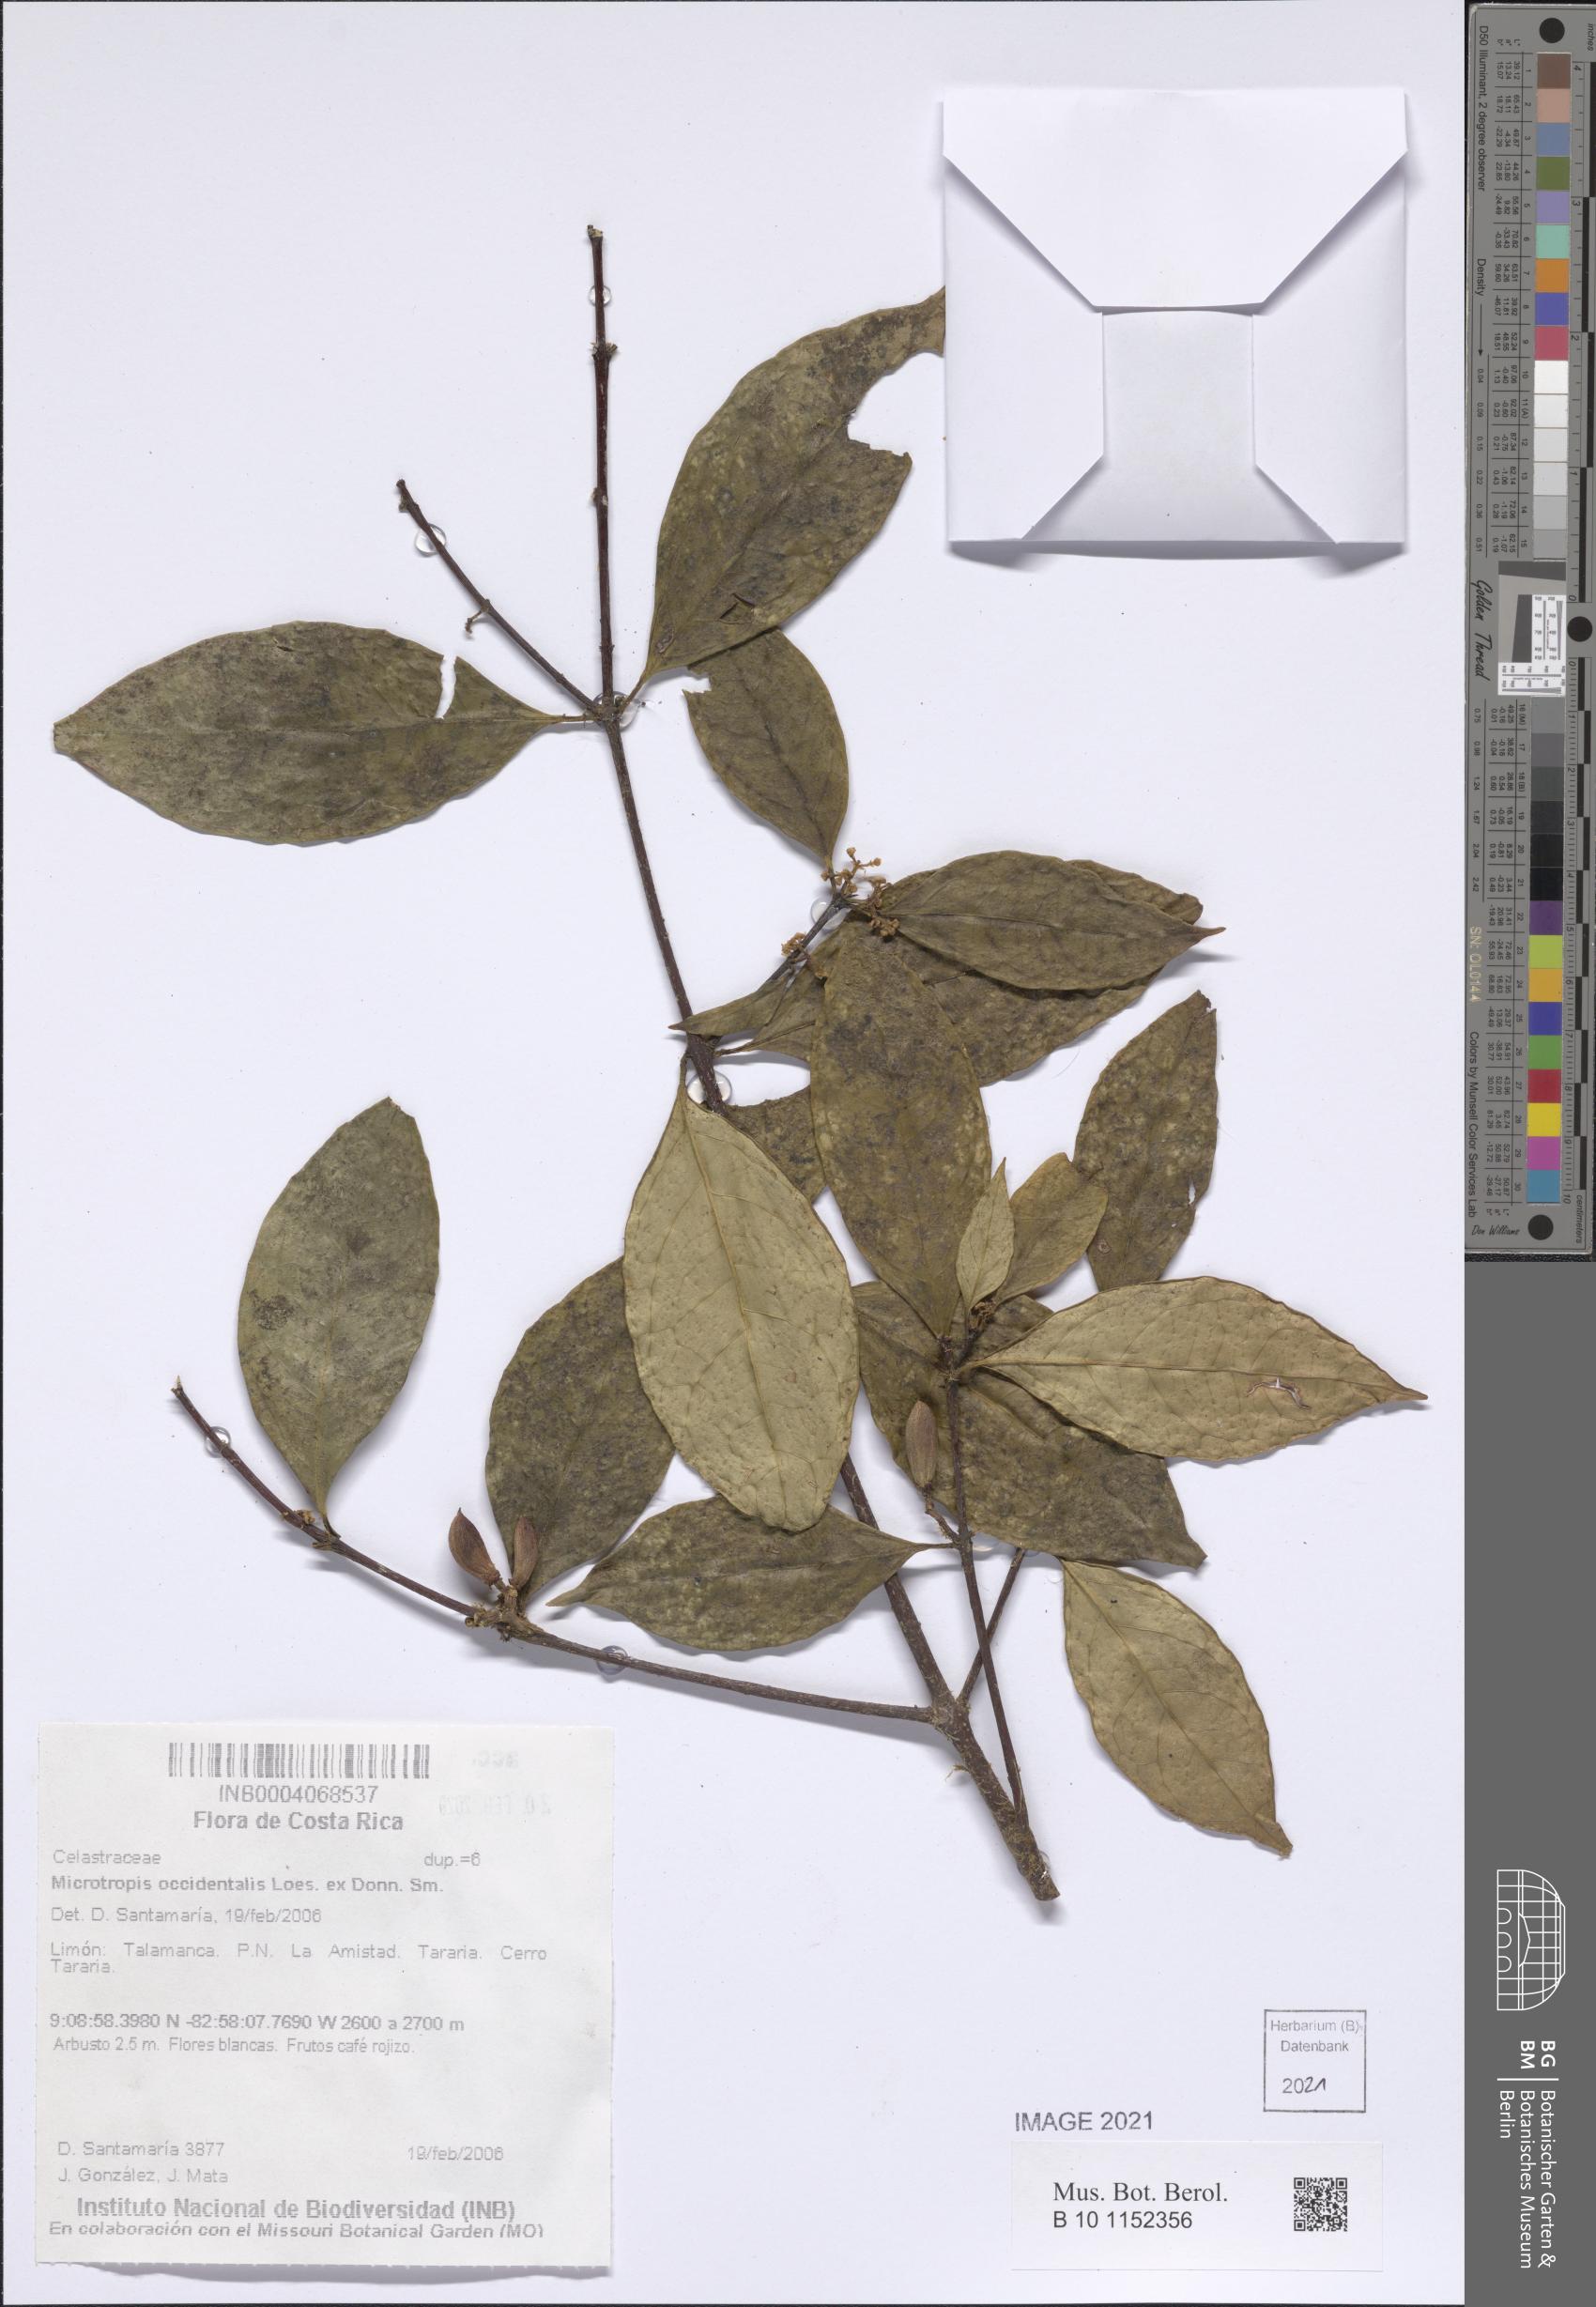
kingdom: Plantae
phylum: Tracheophyta
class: Magnoliopsida
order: Celastrales
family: Celastraceae
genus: Quetzalia
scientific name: Quetzalia occidentalis
